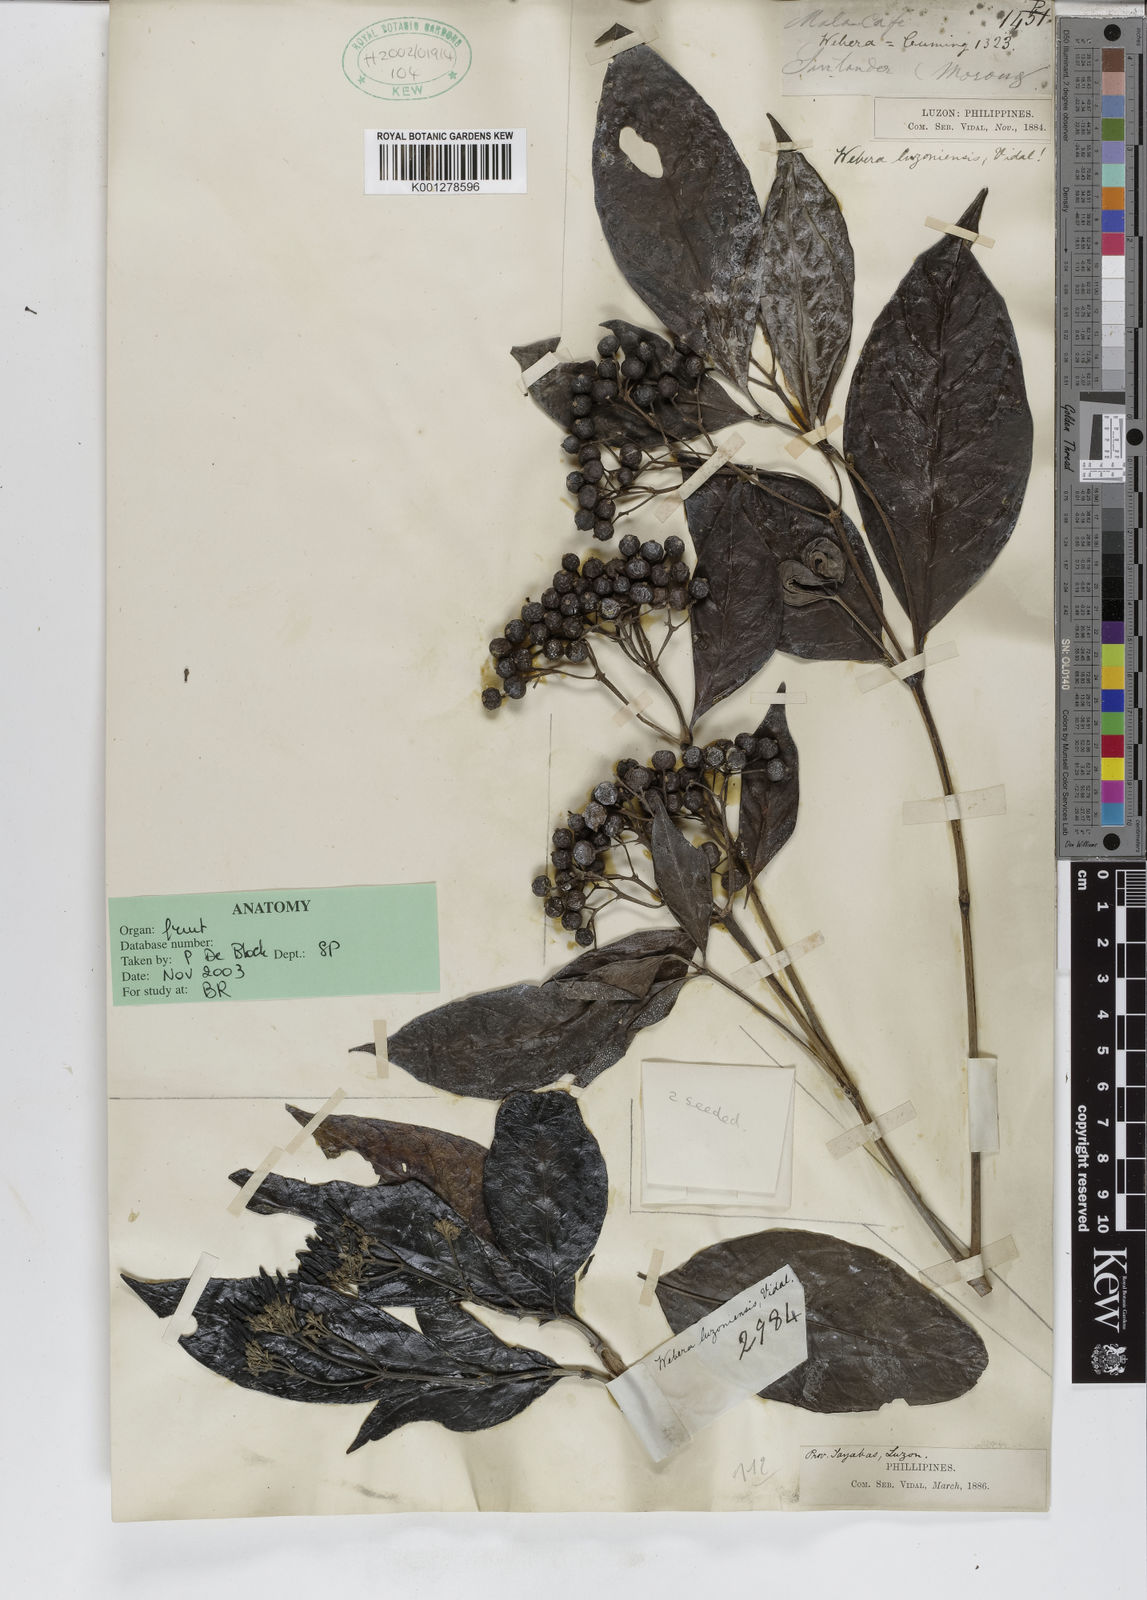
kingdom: Plantae
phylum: Tracheophyta
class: Magnoliopsida
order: Gentianales
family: Rubiaceae
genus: Tarenna
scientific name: Tarenna luzoniensis
